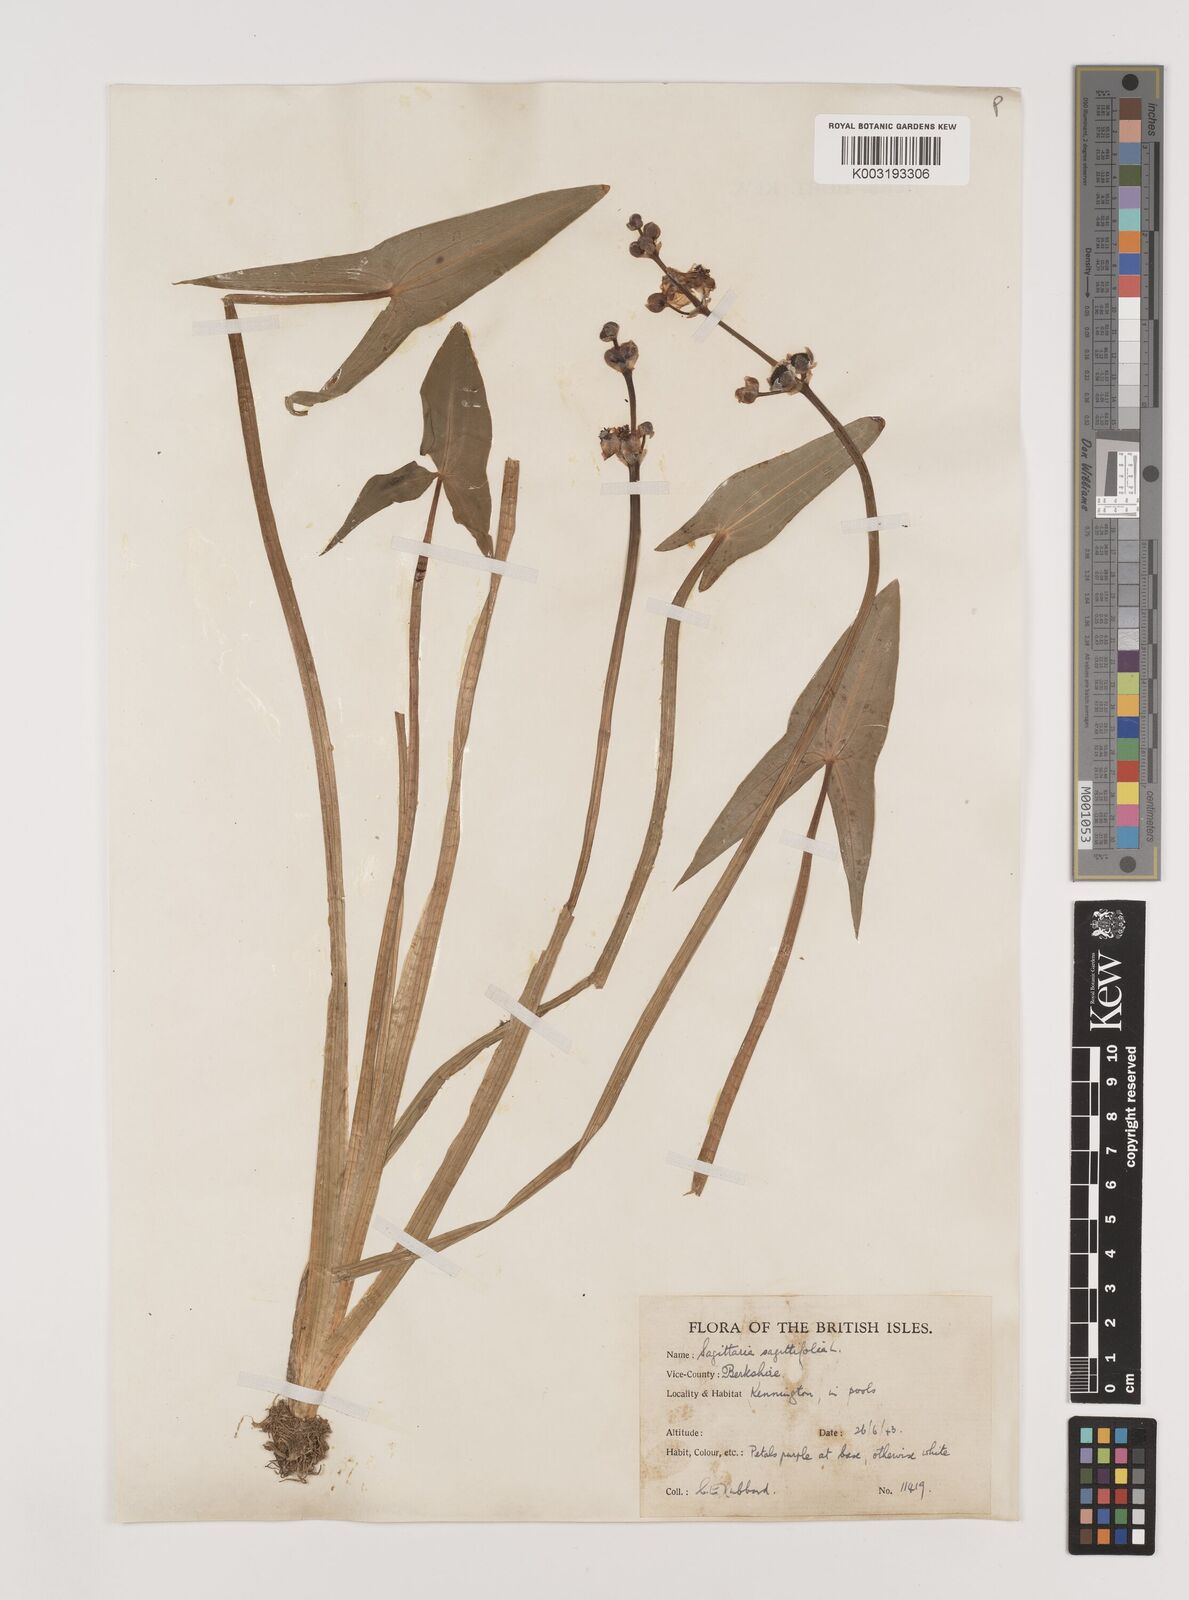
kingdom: Plantae
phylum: Tracheophyta
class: Liliopsida
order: Alismatales
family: Alismataceae
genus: Sagittaria
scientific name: Sagittaria sagittifolia
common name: Arrowhead
